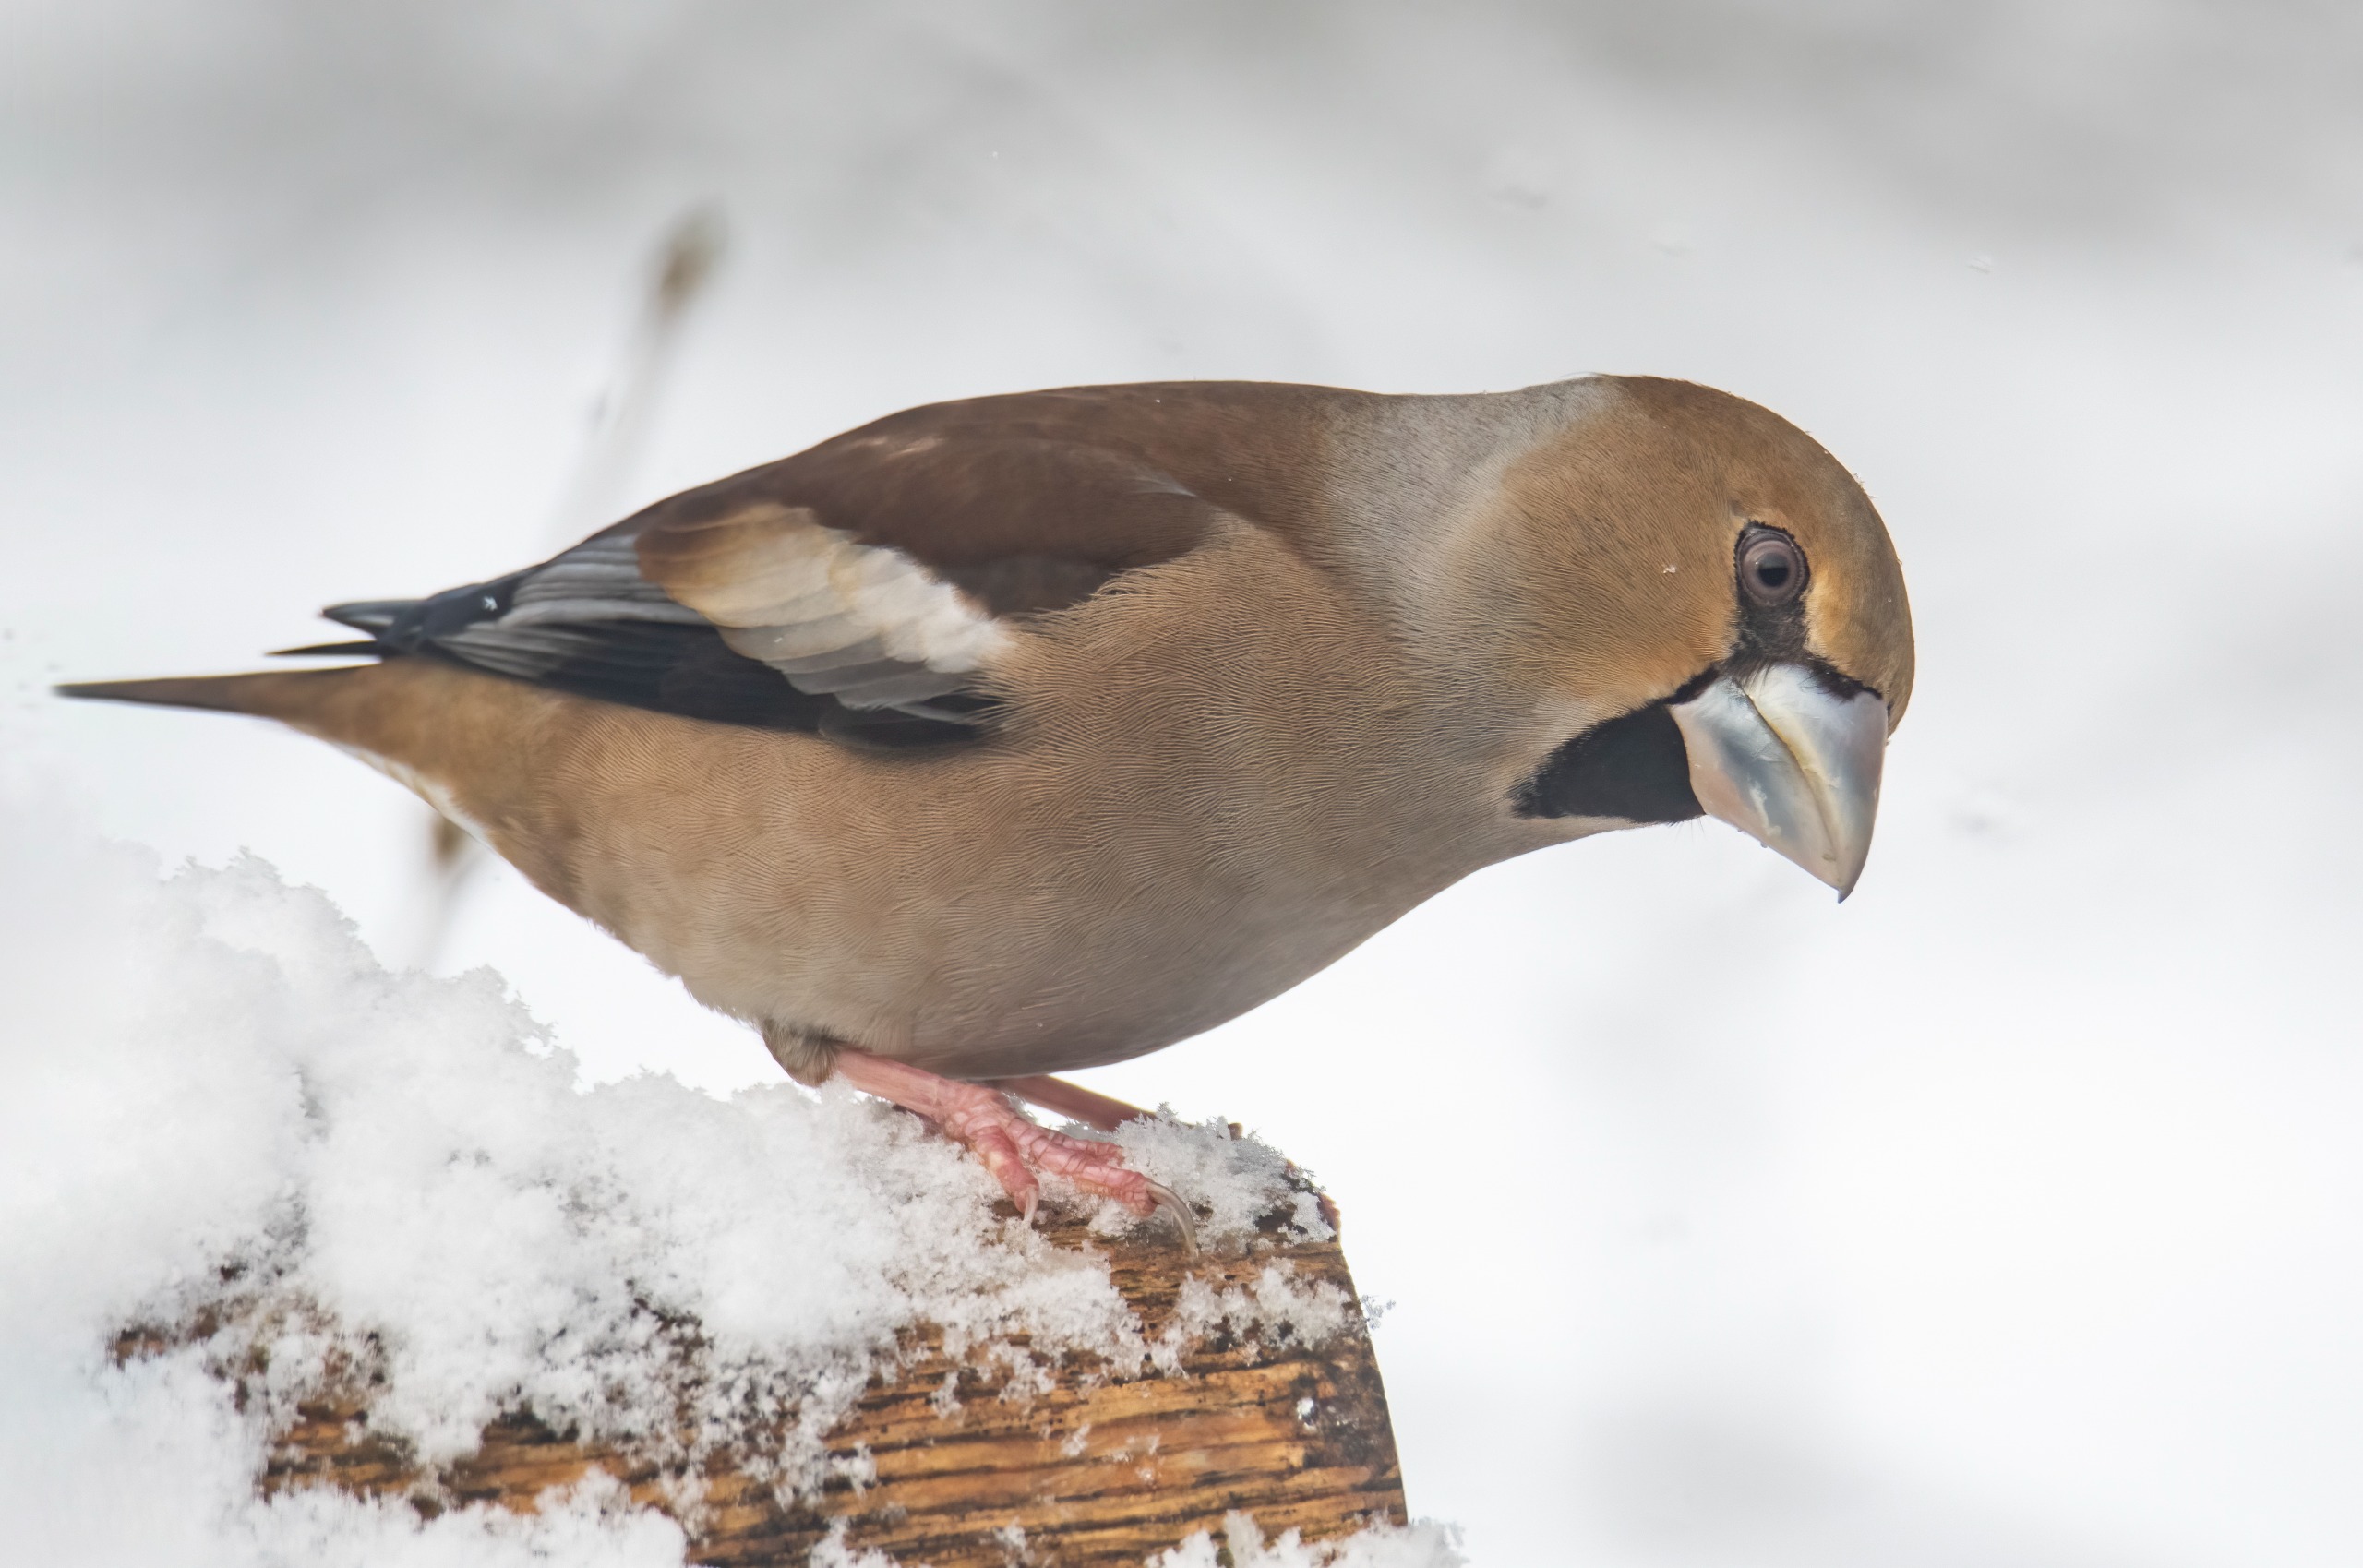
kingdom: Animalia
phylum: Chordata
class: Aves
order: Passeriformes
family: Fringillidae
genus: Coccothraustes
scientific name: Coccothraustes coccothraustes
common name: Kernebider
